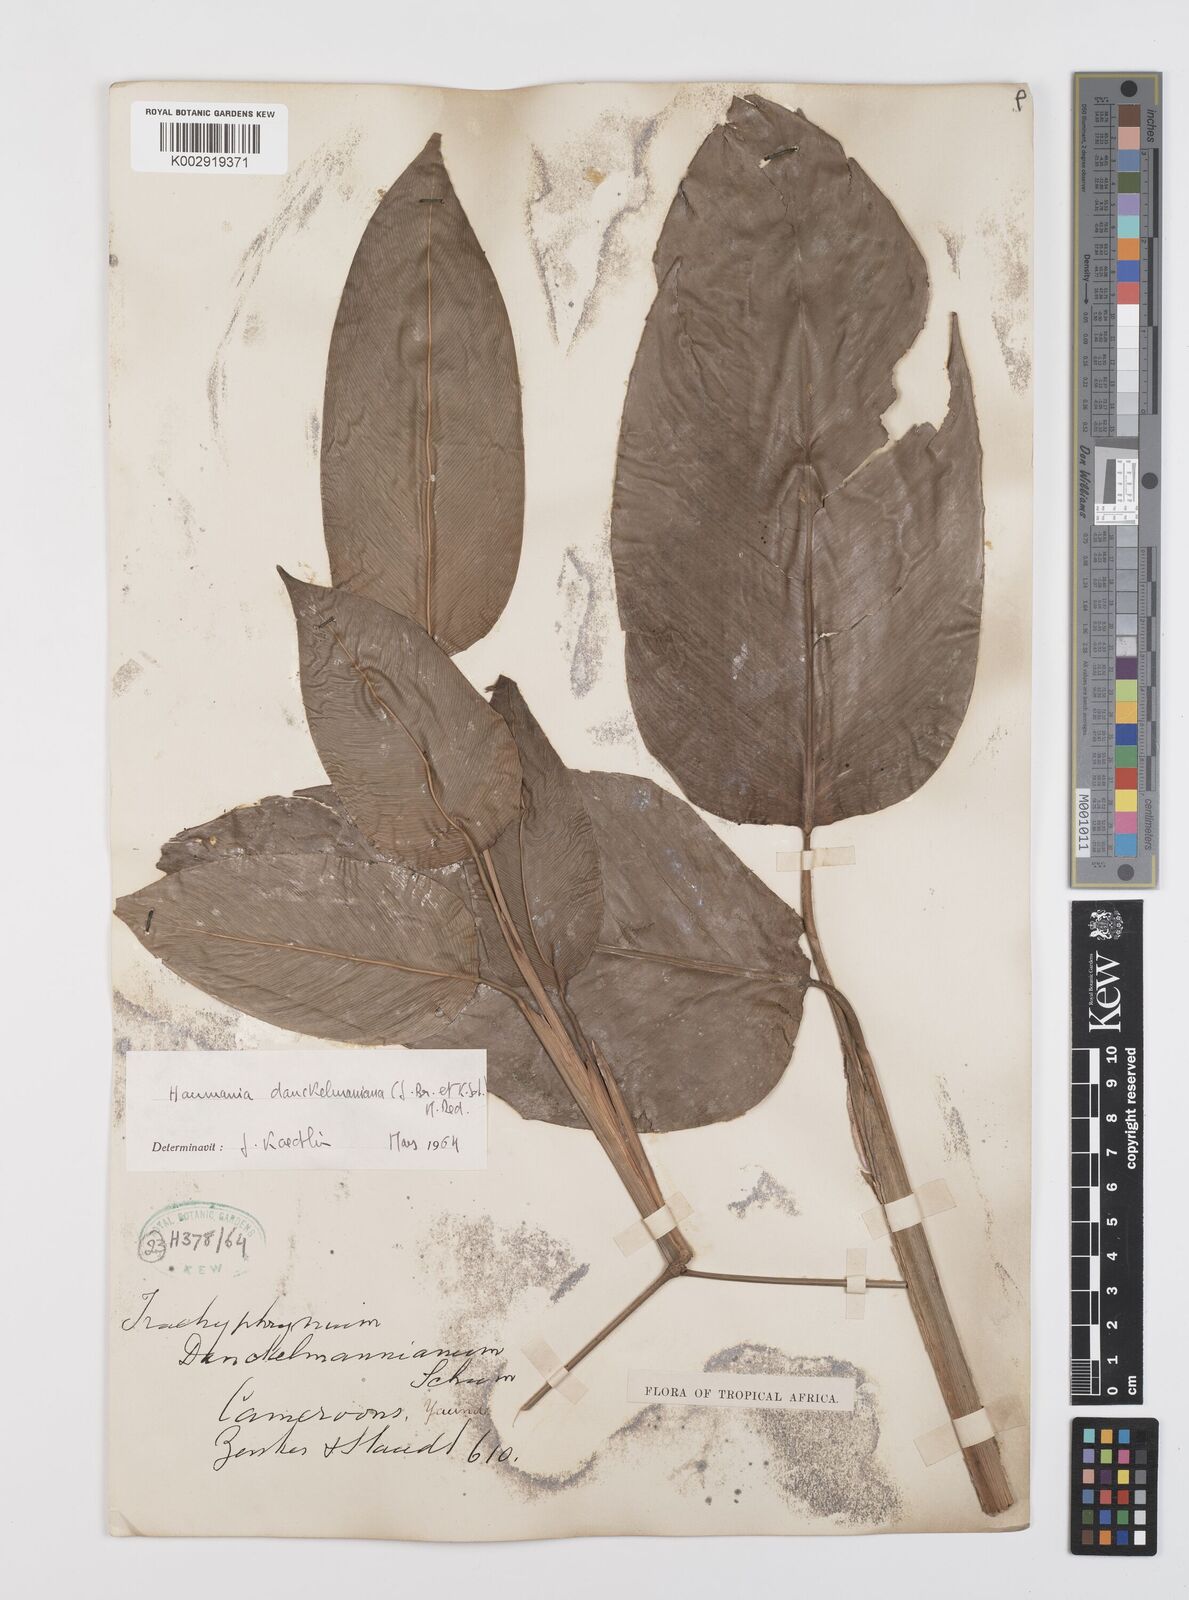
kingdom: Plantae
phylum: Tracheophyta
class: Liliopsida
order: Zingiberales
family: Marantaceae
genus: Haumania
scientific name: Haumania danckelmaniana
